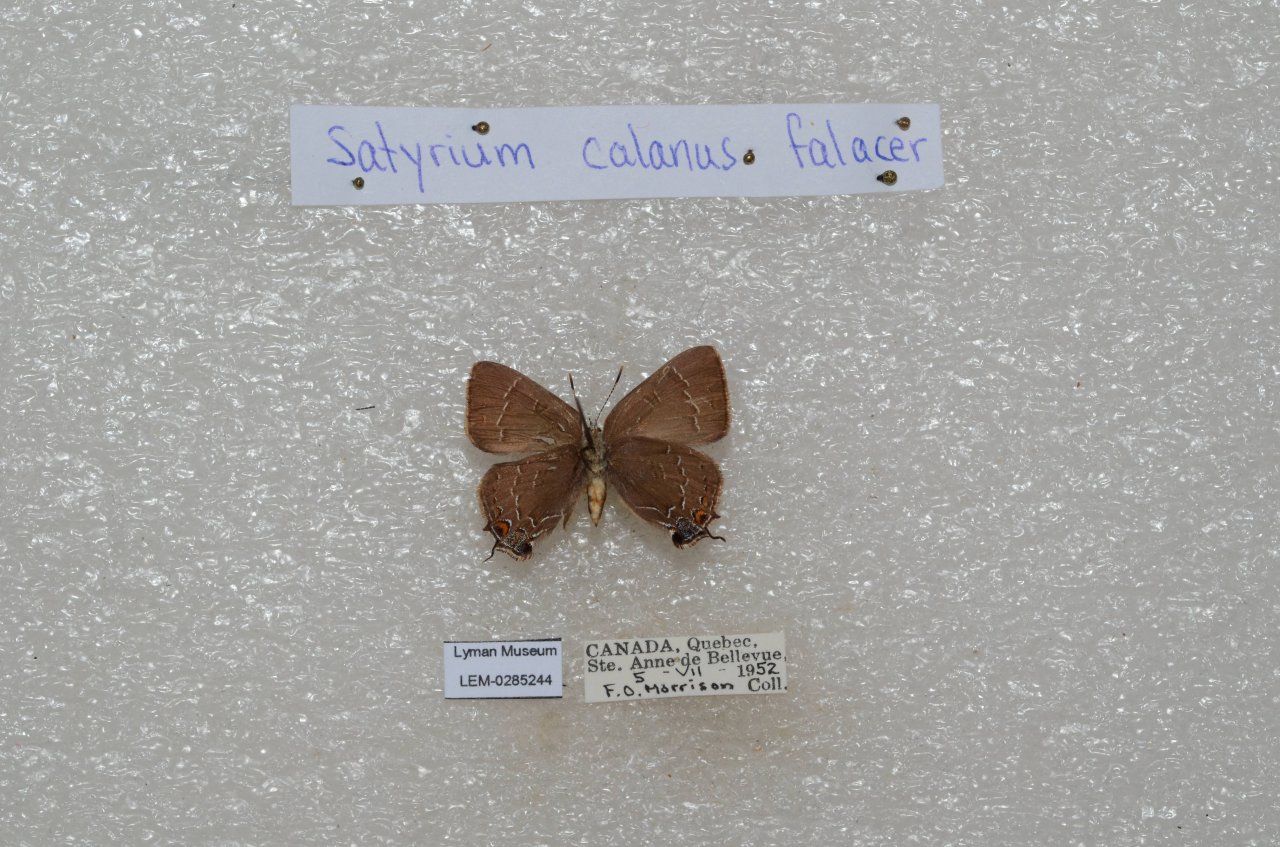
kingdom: Animalia
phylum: Arthropoda
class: Insecta
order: Lepidoptera
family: Lycaenidae
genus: Satyrium
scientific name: Satyrium calanus
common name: Banded Hairstreak
